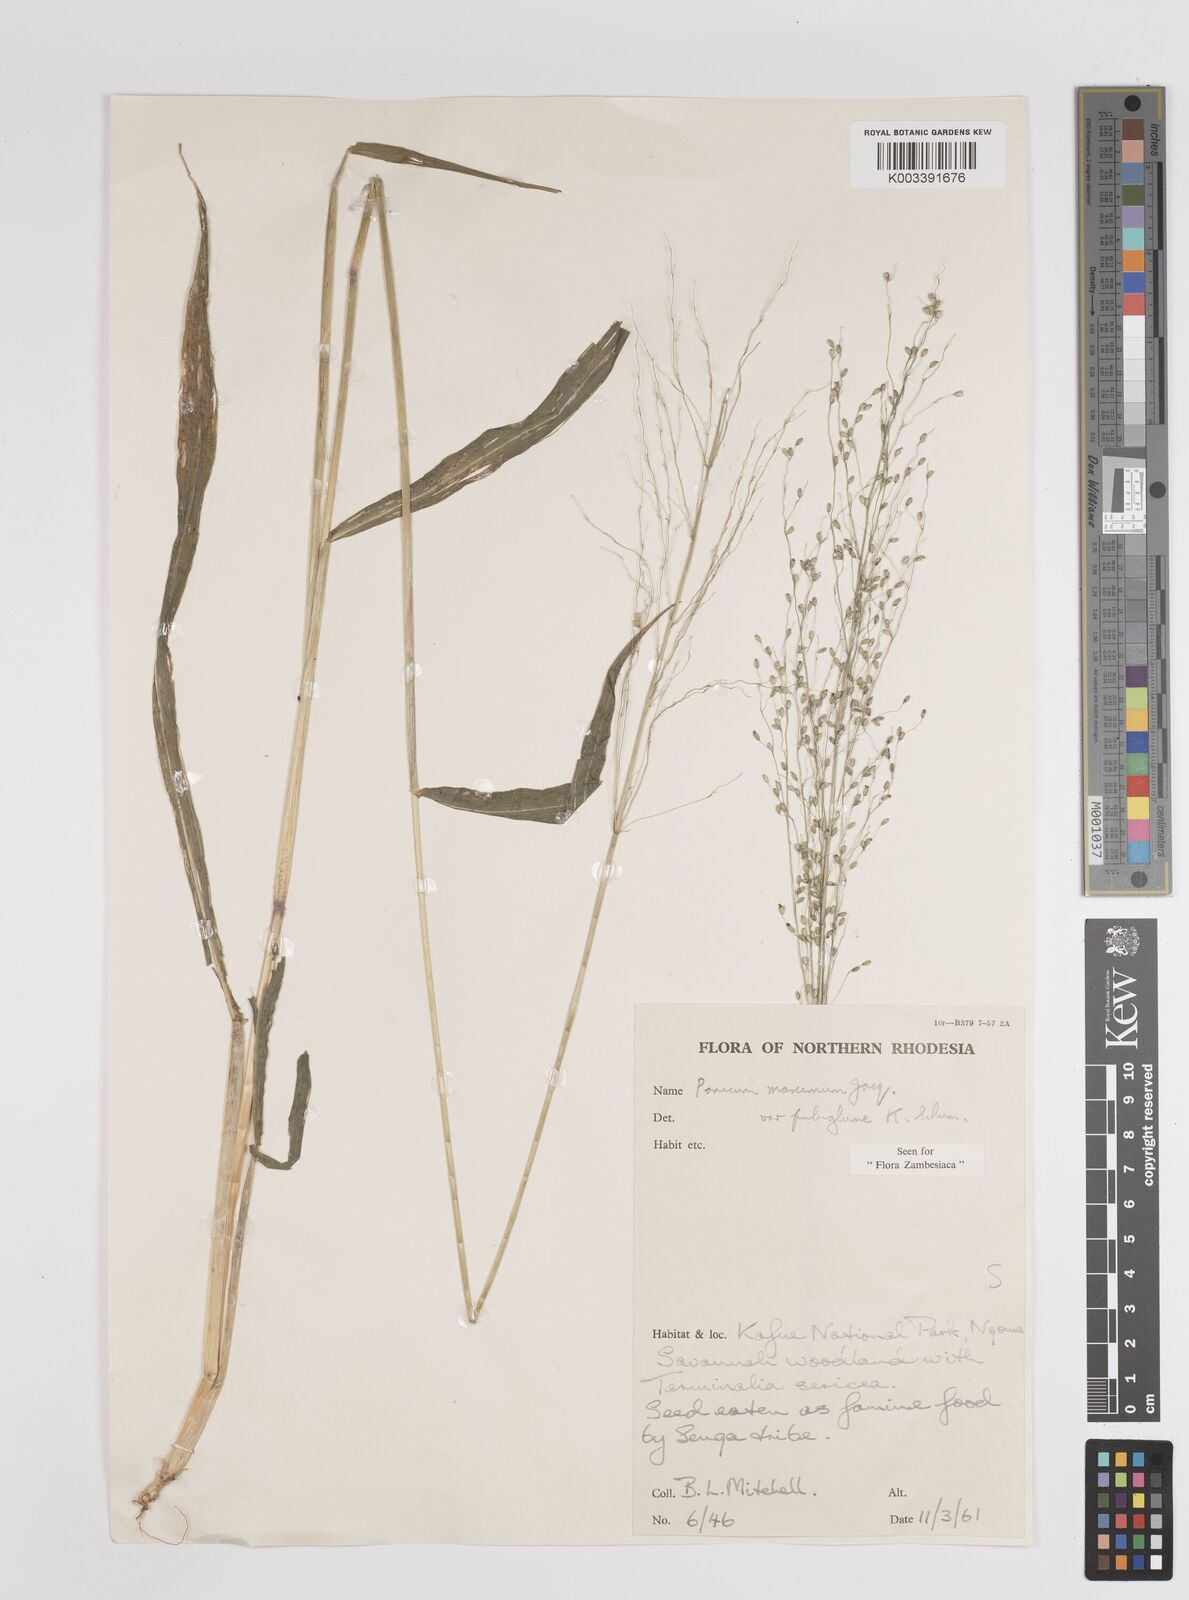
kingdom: Plantae
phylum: Tracheophyta
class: Liliopsida
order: Poales
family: Poaceae
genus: Megathyrsus
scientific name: Megathyrsus maximus
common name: Guineagrass
